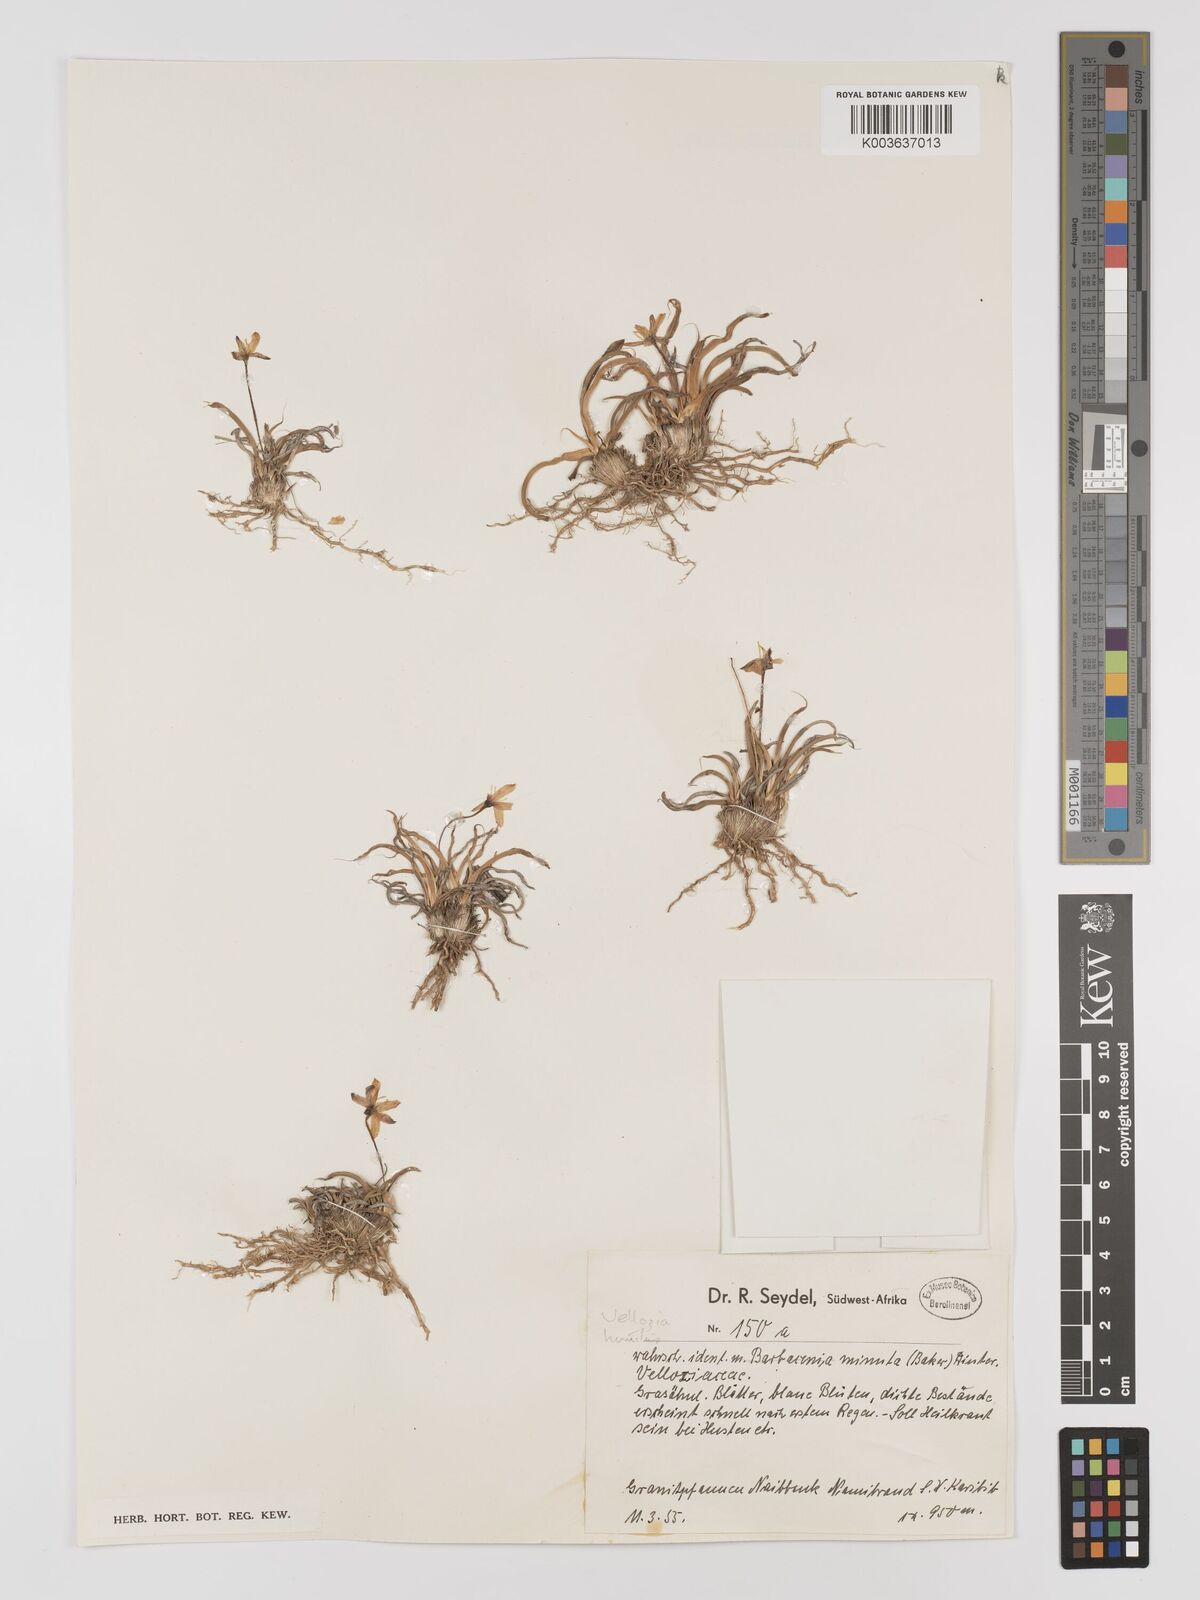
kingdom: Plantae
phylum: Tracheophyta
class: Liliopsida
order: Pandanales
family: Velloziaceae
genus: Xerophyta
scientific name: Xerophyta humilis
